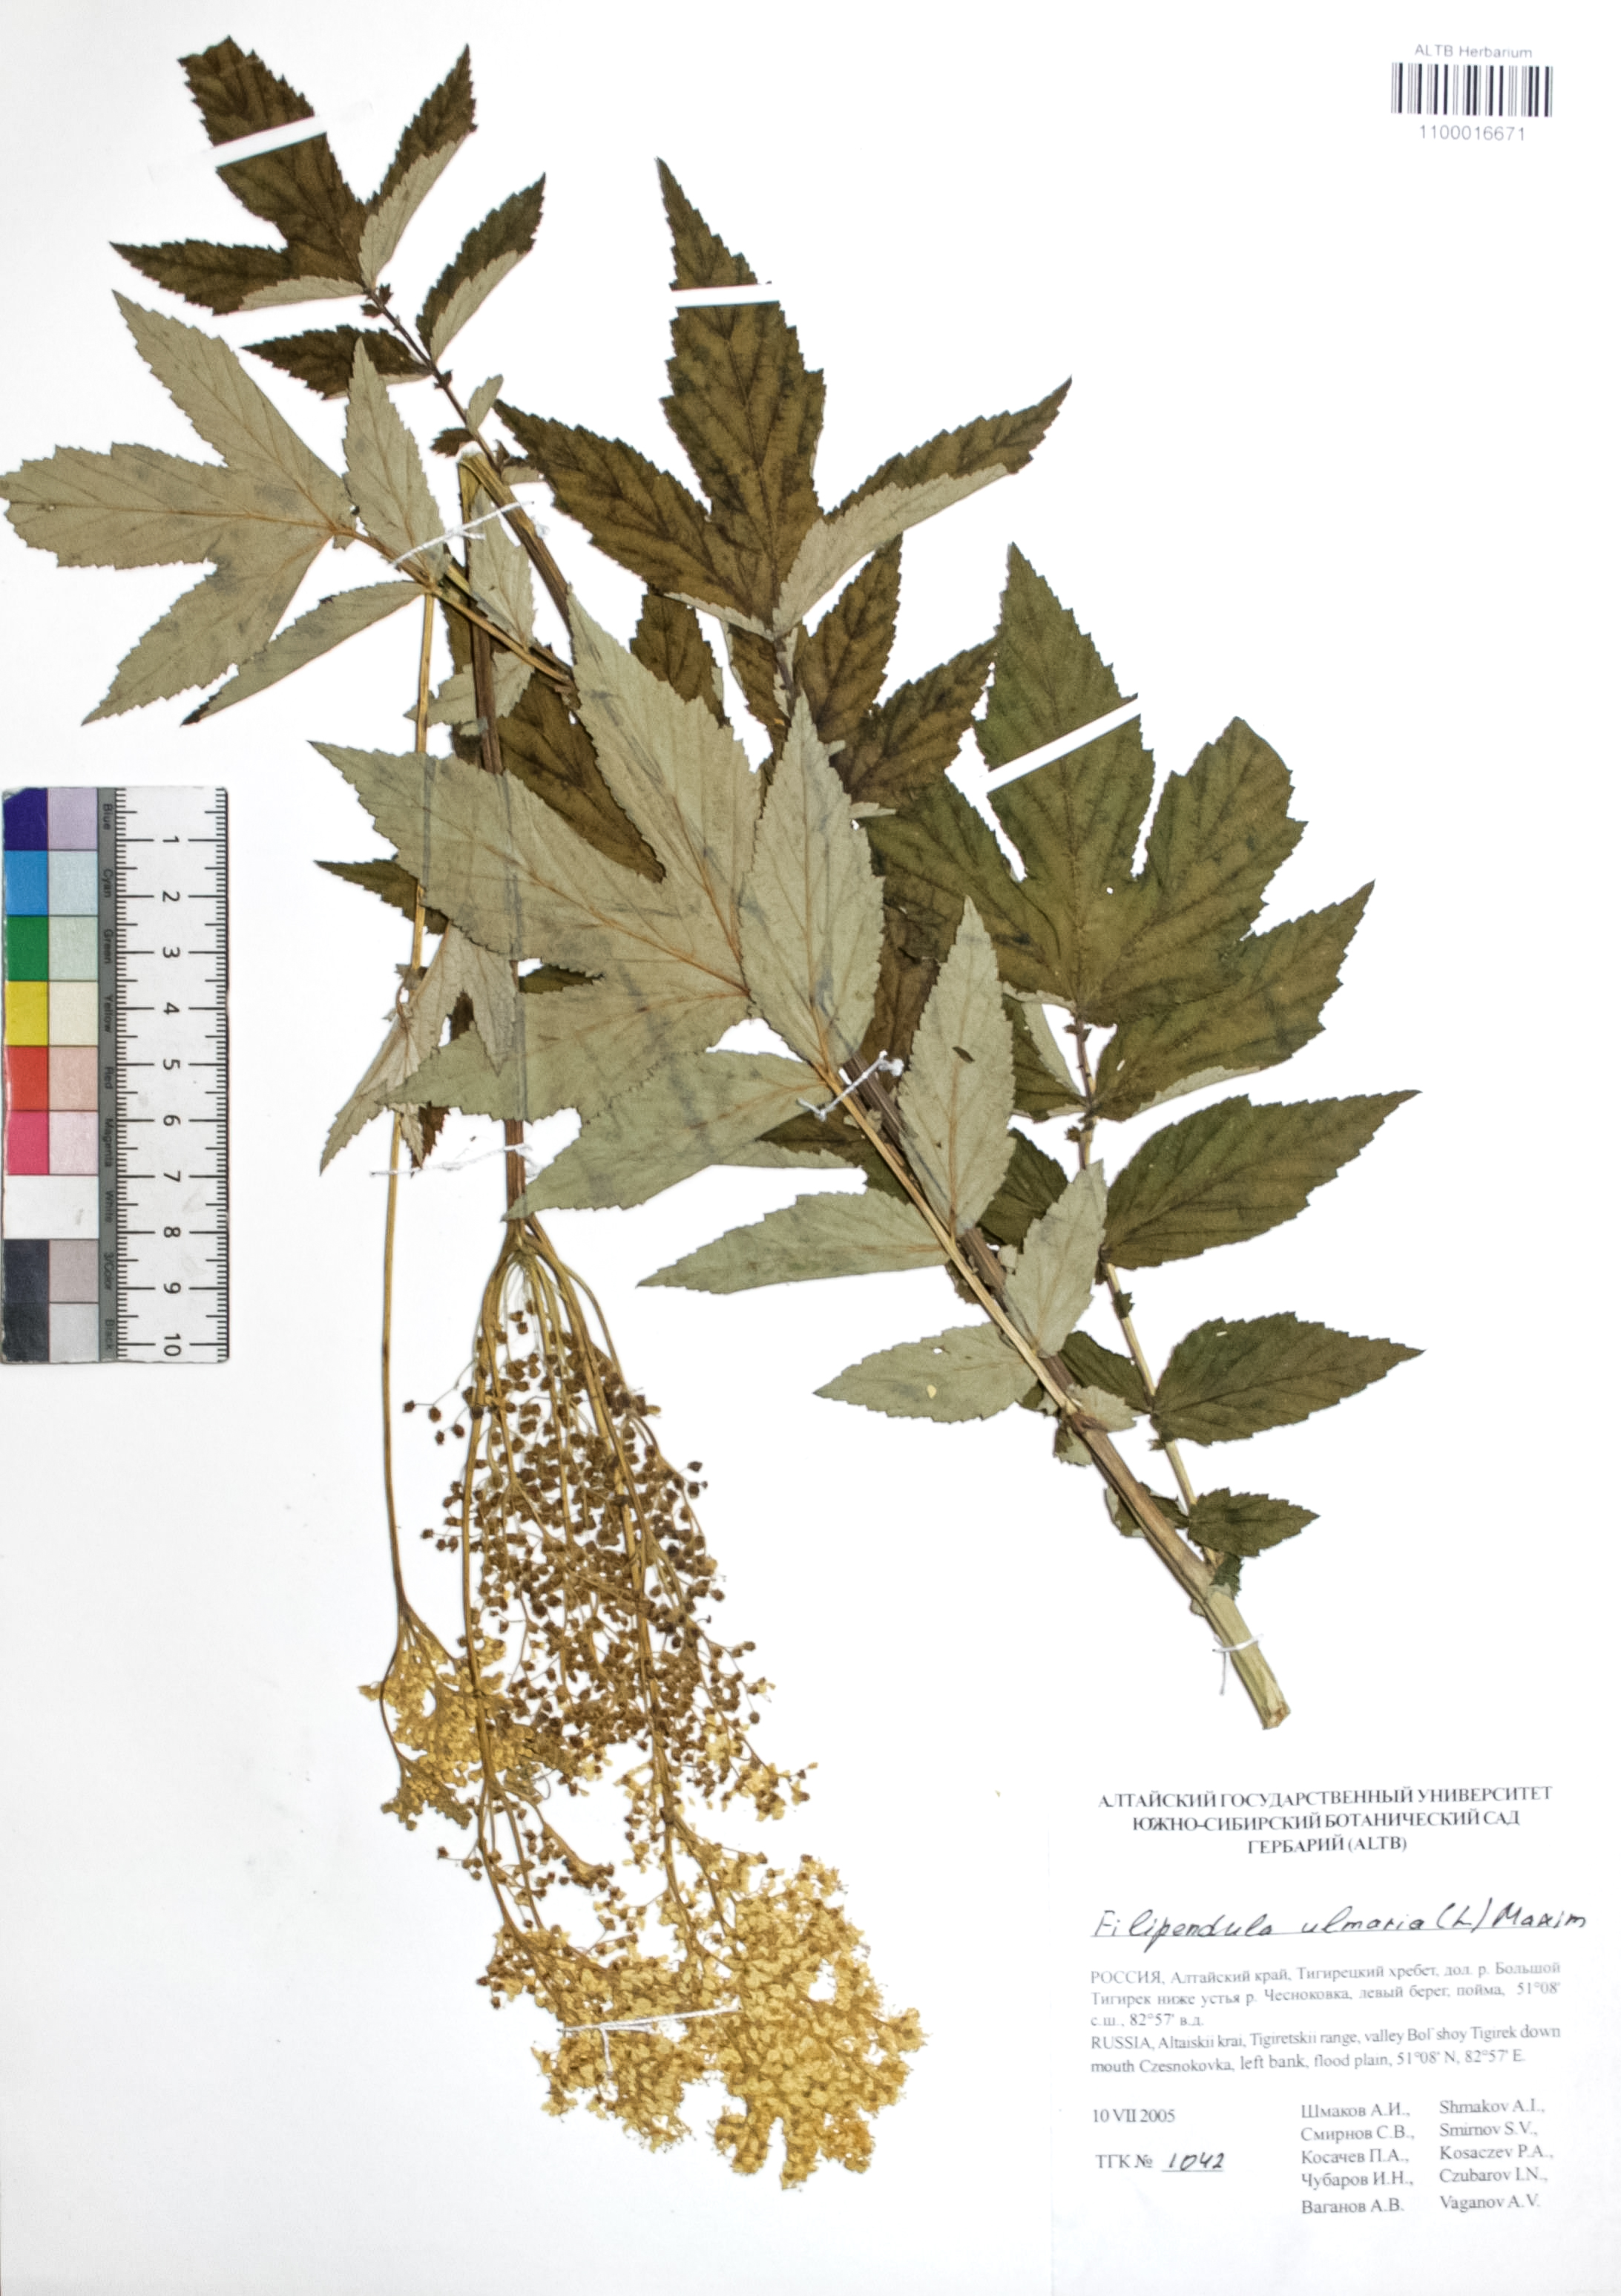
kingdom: Plantae
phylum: Tracheophyta
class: Magnoliopsida
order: Rosales
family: Rosaceae
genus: Filipendula
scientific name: Filipendula ulmaria
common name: Meadowsweet
